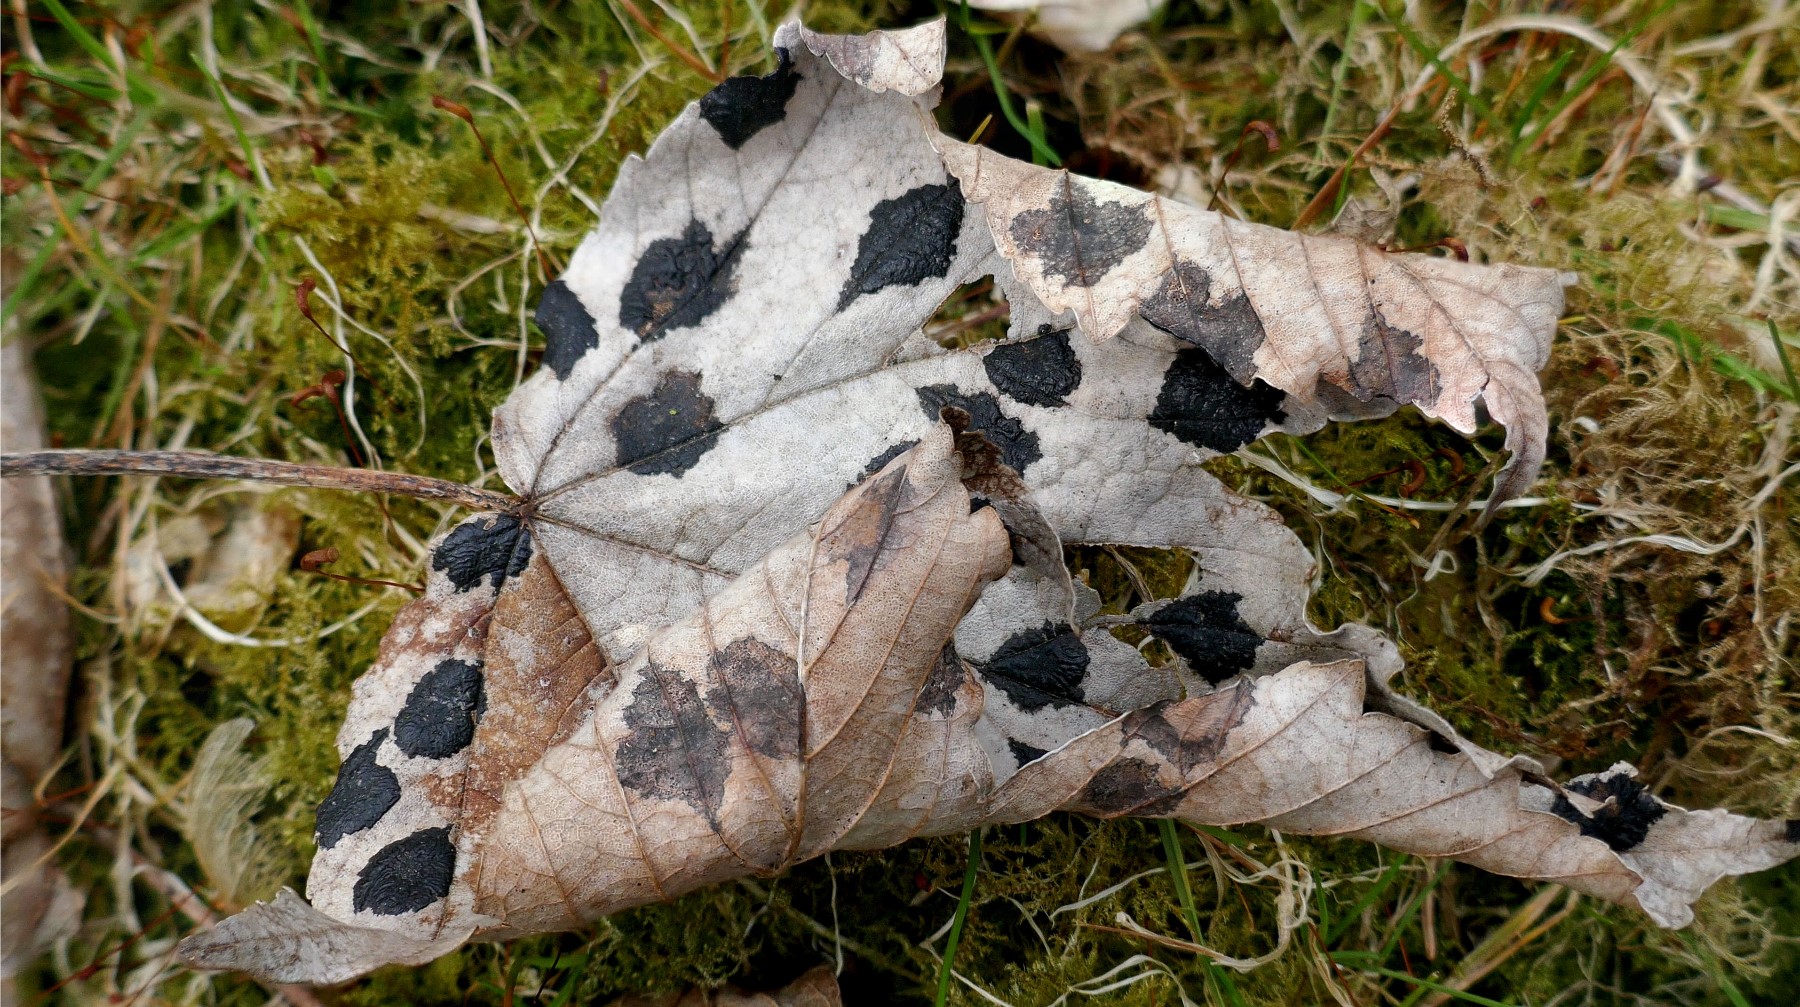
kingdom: Fungi
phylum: Ascomycota
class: Leotiomycetes
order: Rhytismatales
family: Rhytismataceae
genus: Rhytisma
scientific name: Rhytisma acerinum
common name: ahorn-rynkeplet
